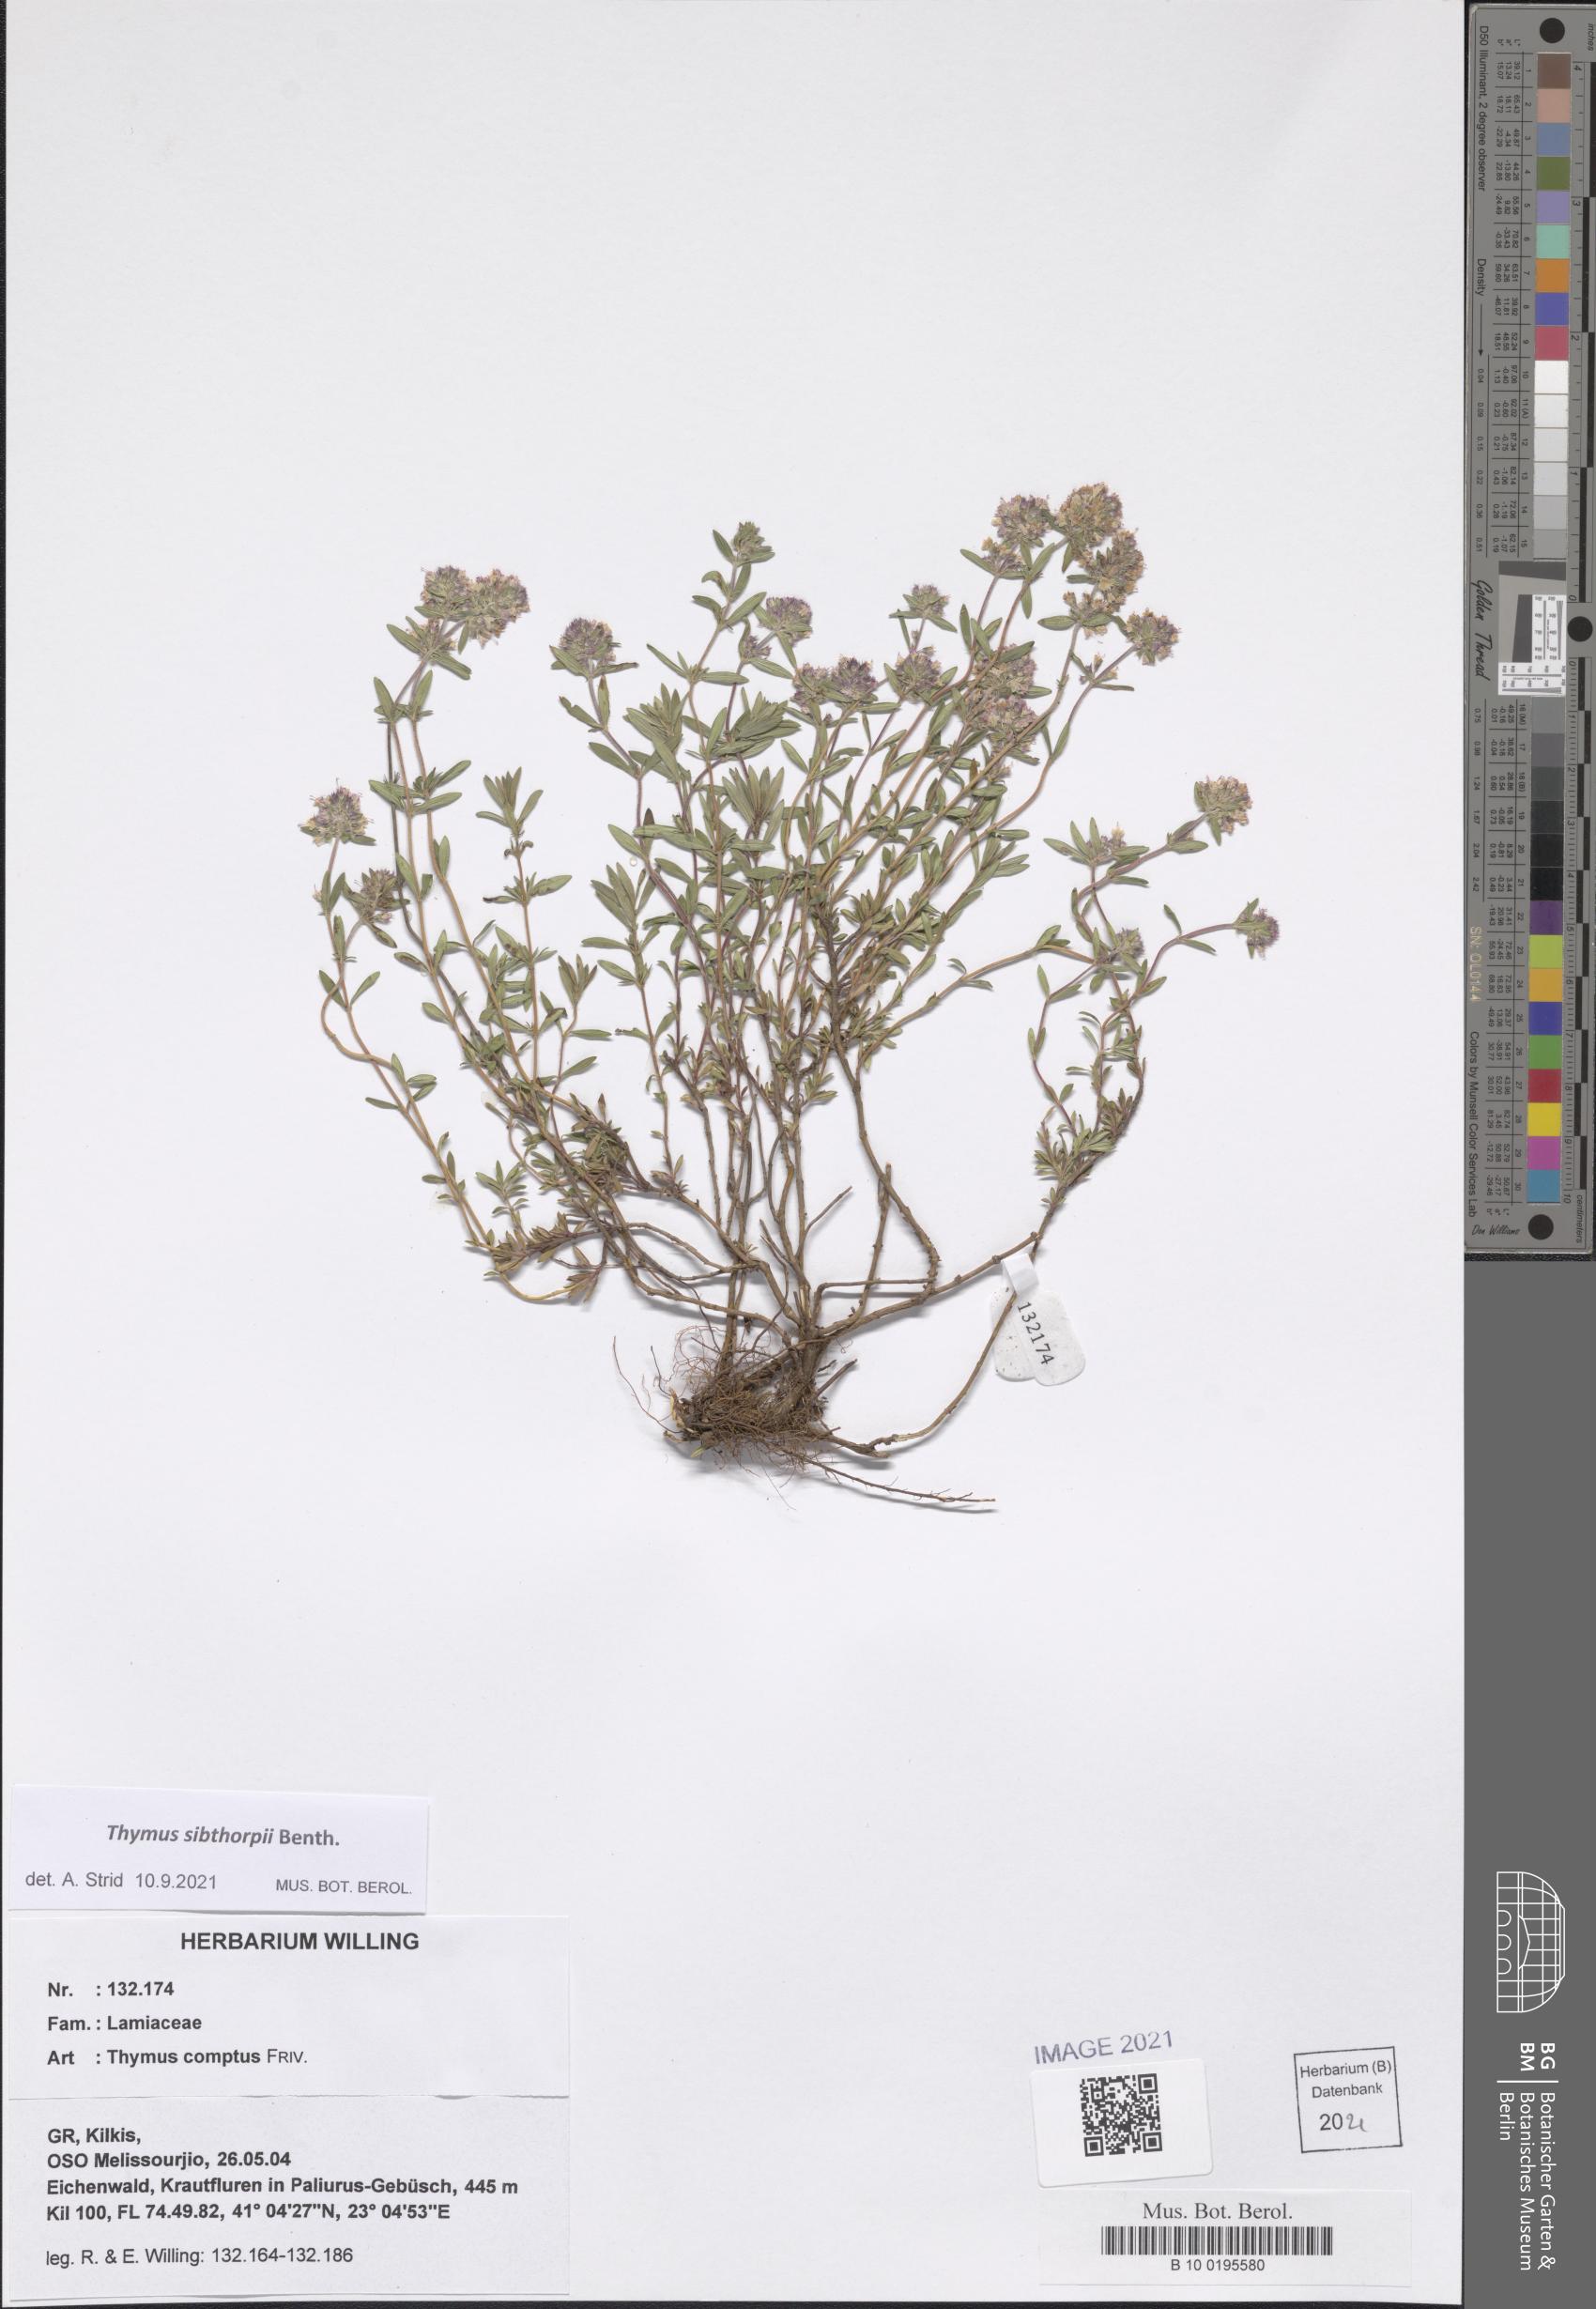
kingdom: Plantae
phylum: Tracheophyta
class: Magnoliopsida
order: Lamiales
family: Lamiaceae
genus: Thymus
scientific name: Thymus sibthorpii
